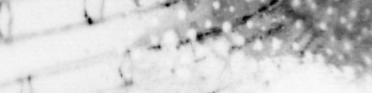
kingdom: Animalia
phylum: Chordata
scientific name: Chordata
